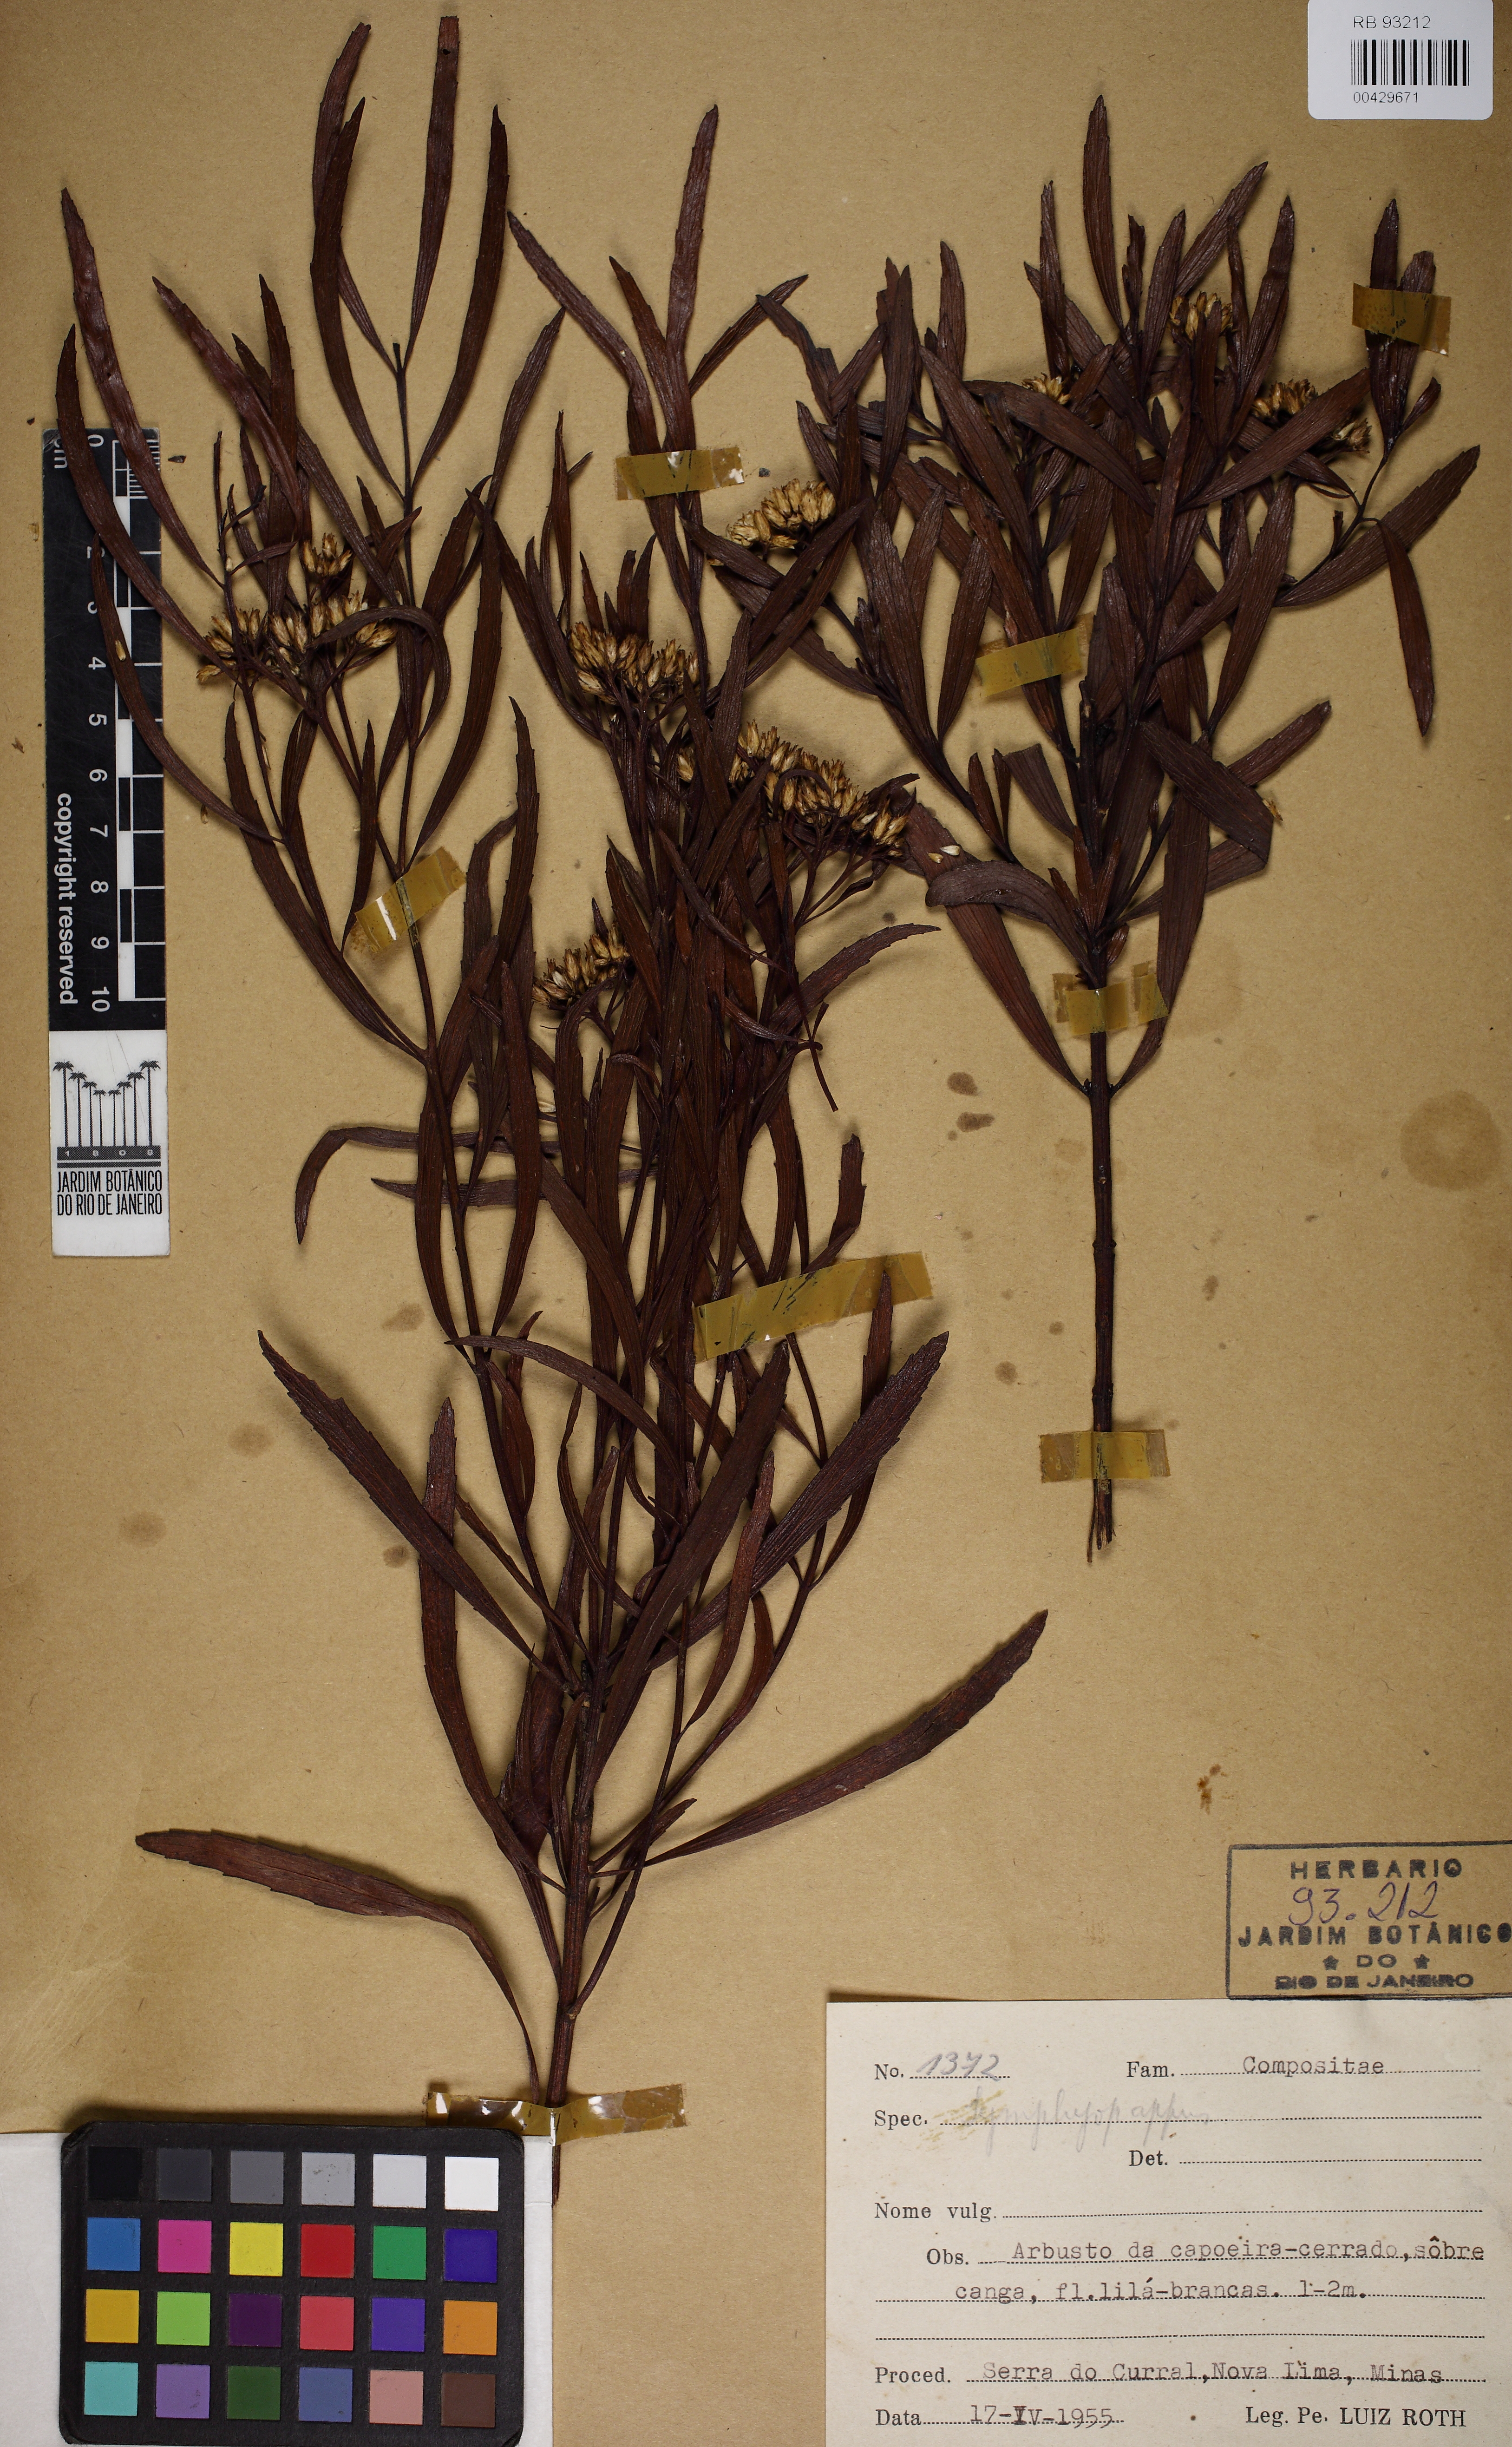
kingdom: Plantae
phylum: Tracheophyta
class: Magnoliopsida
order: Asterales
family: Asteraceae
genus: Symphyopappus
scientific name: Symphyopappus angustifolius
